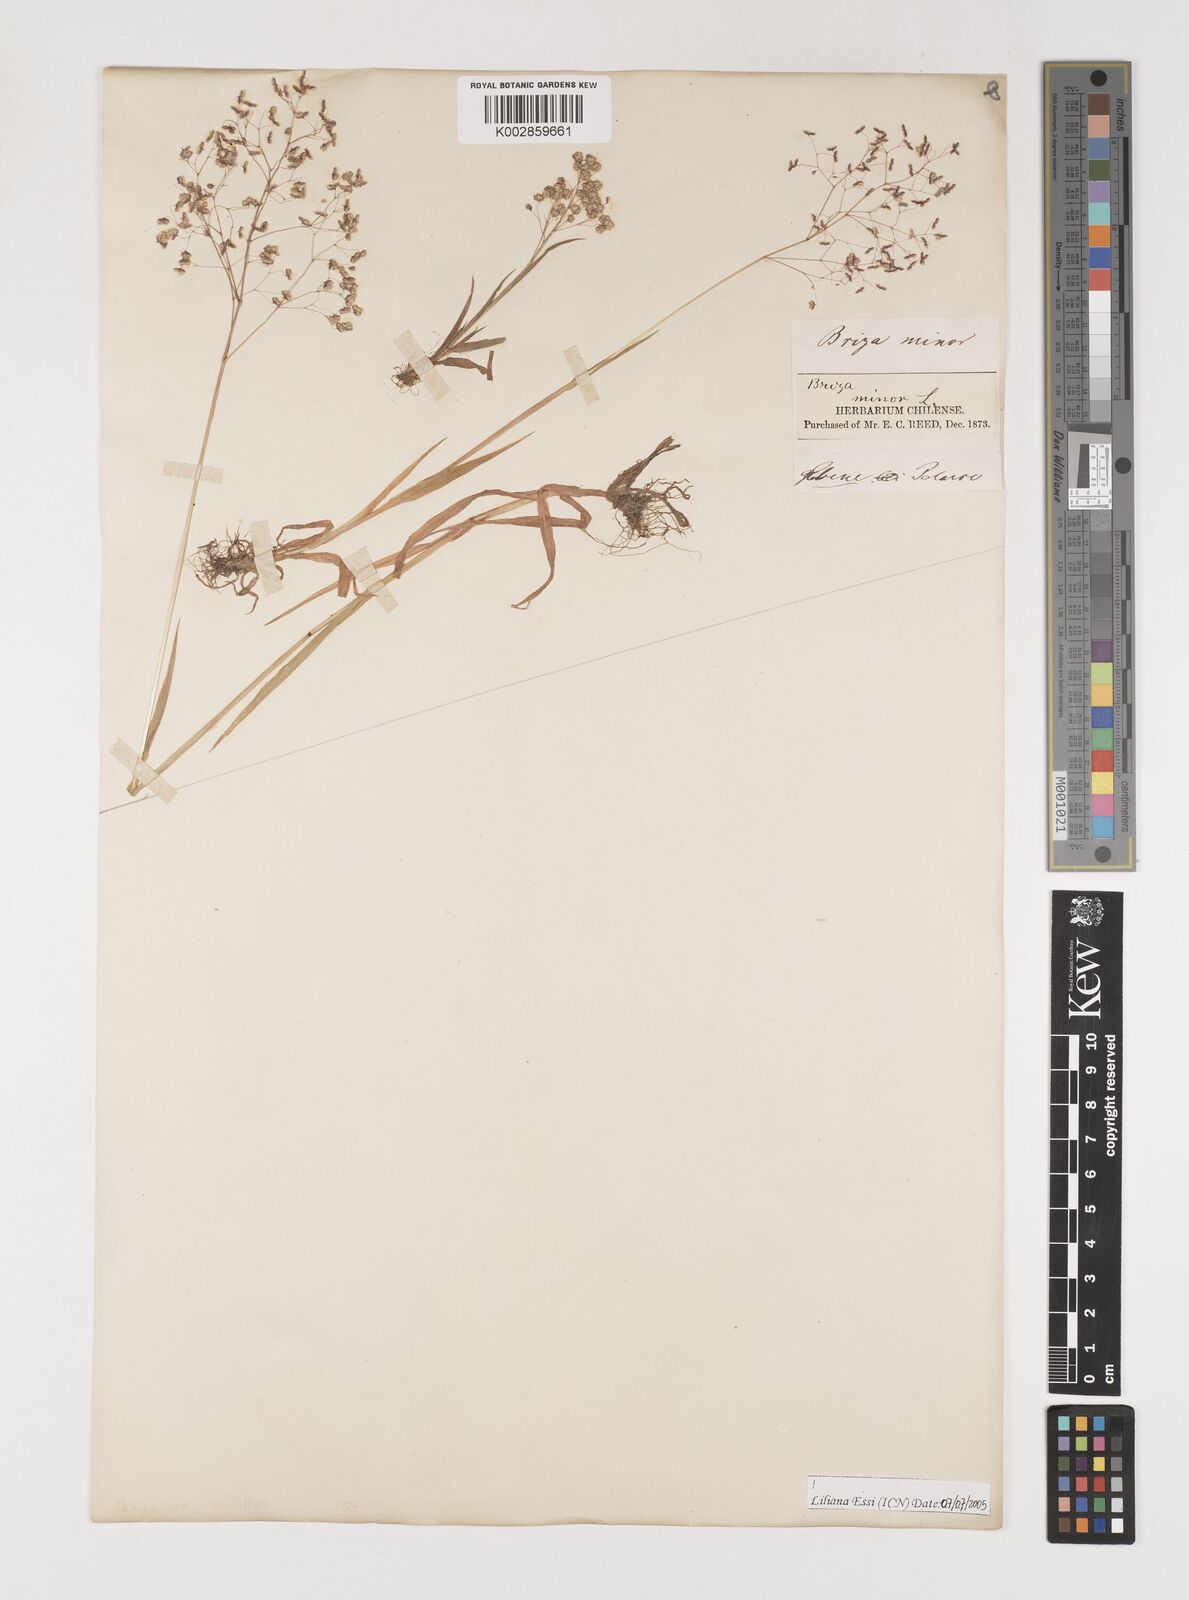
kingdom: Plantae
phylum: Tracheophyta
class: Liliopsida
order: Poales
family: Poaceae
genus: Briza
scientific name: Briza minor
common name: Lesser quaking-grass
